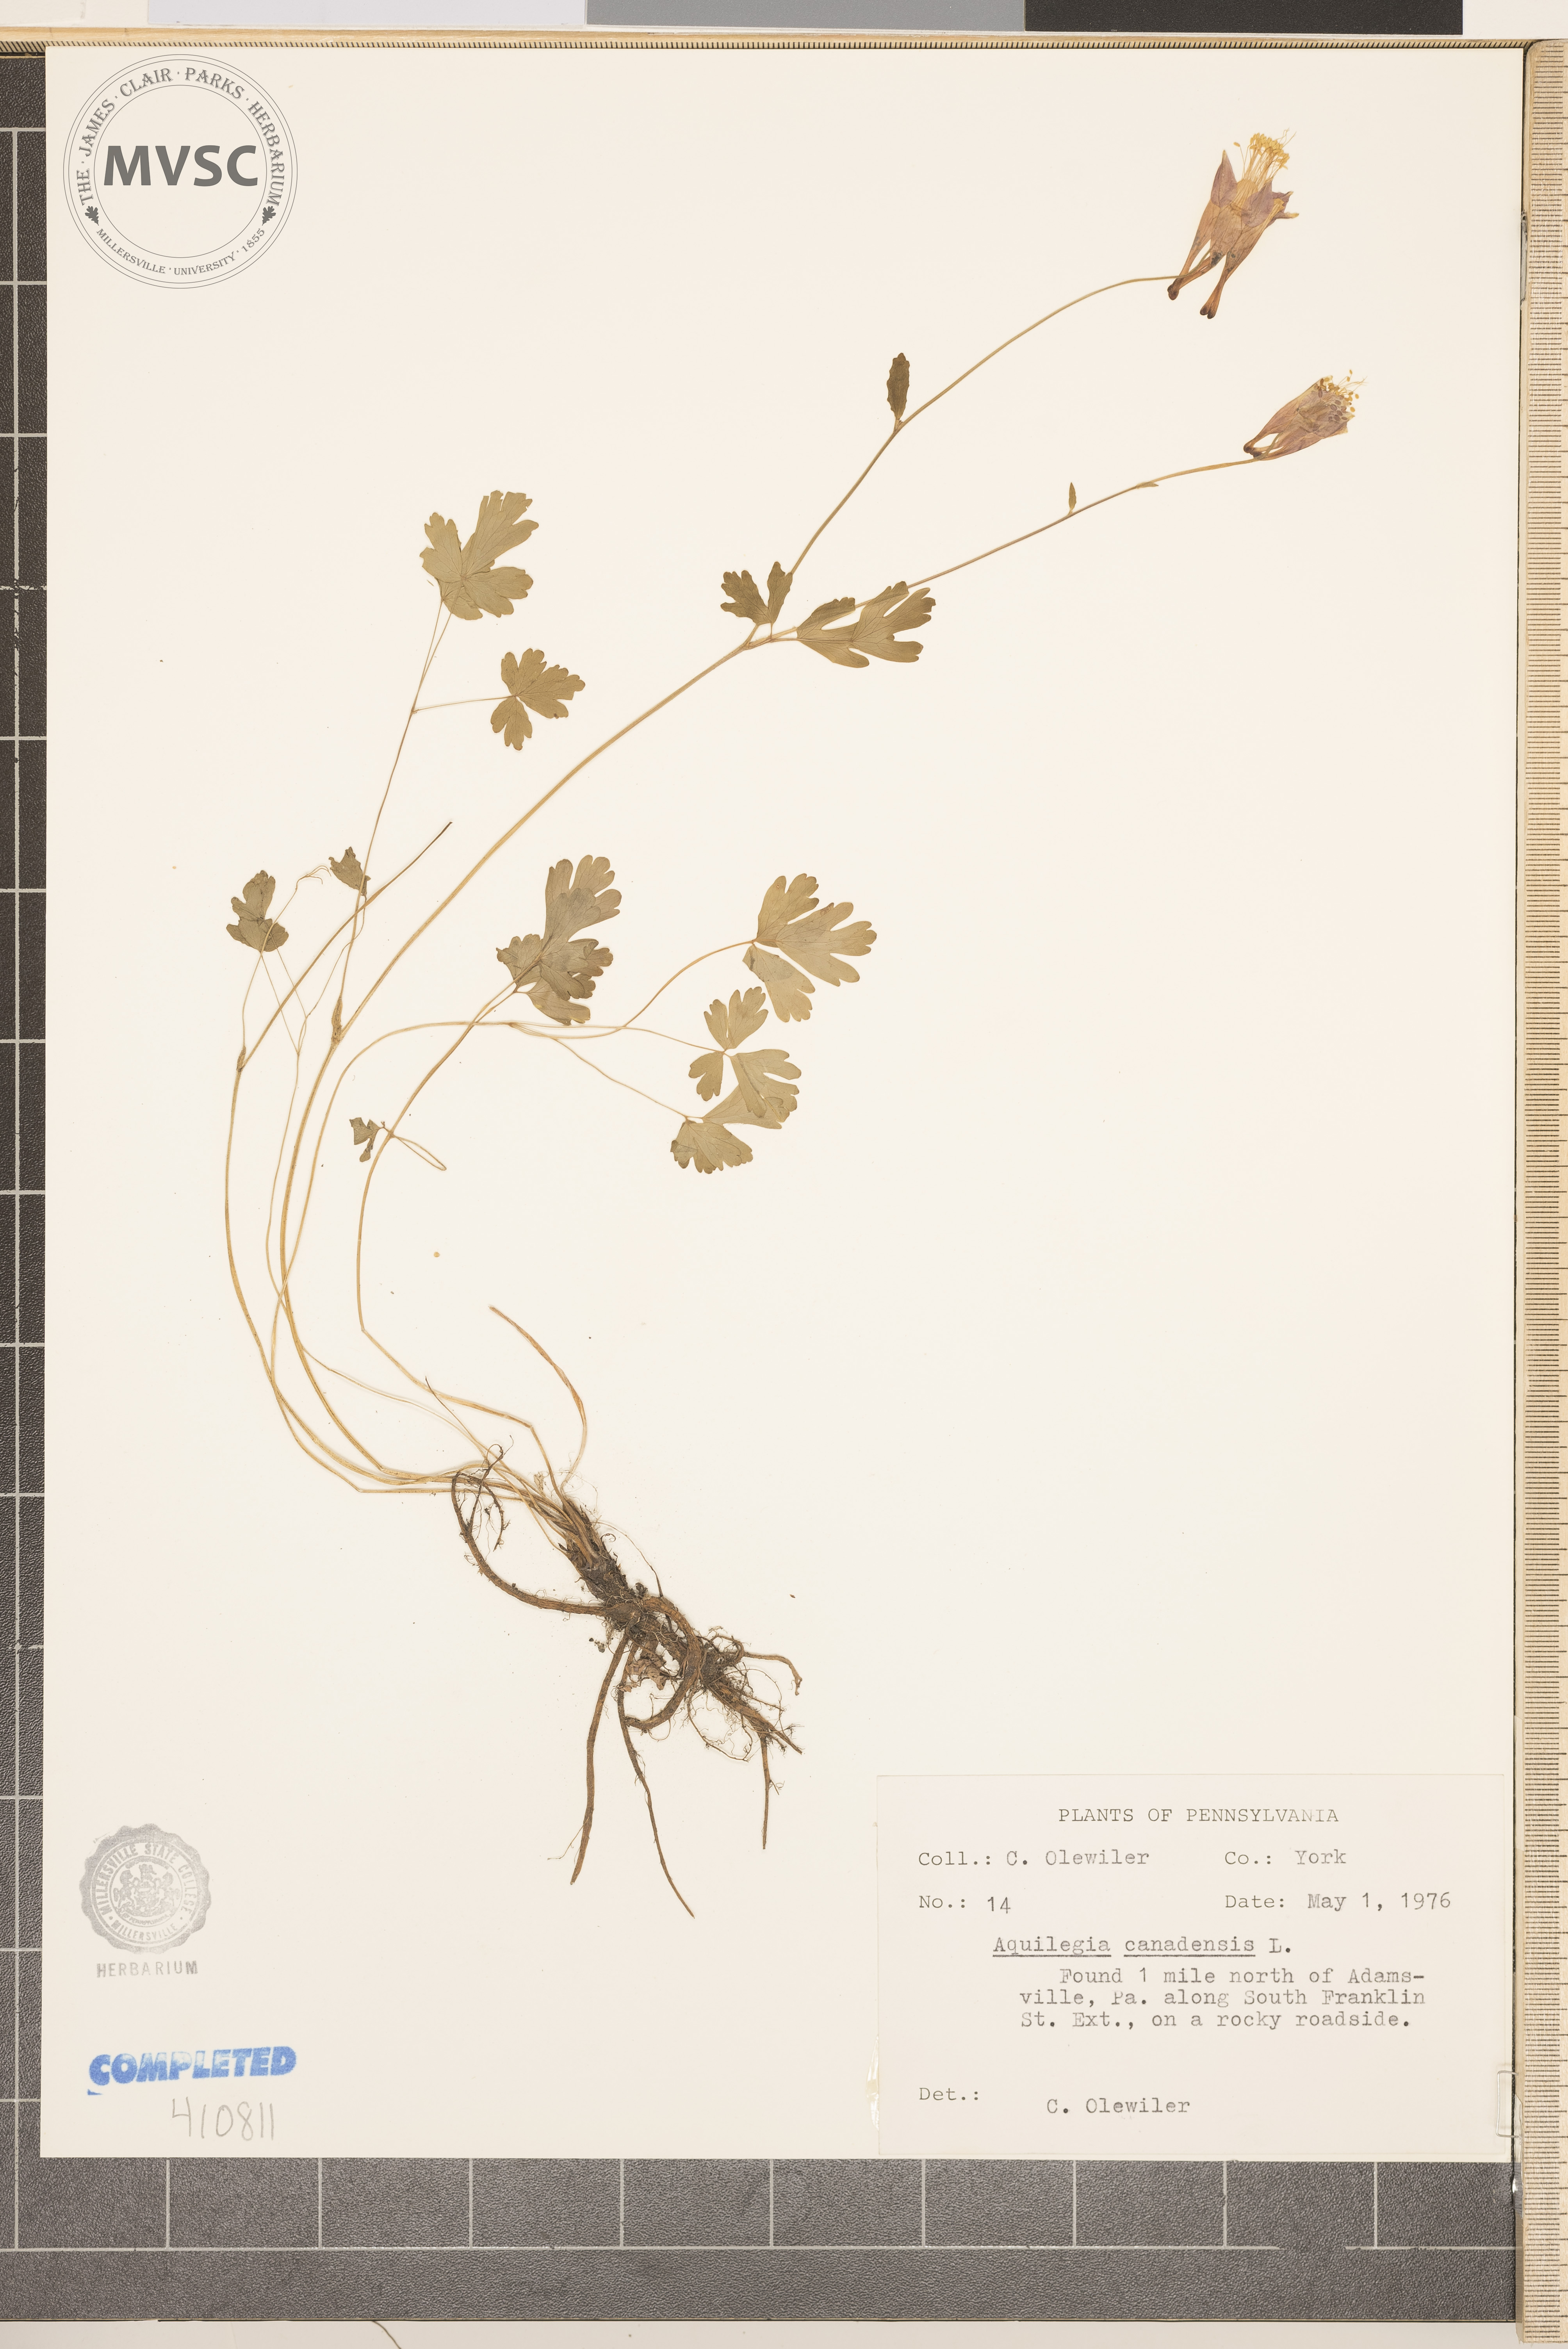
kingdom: Plantae
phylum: Tracheophyta
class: Magnoliopsida
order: Ranunculales
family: Ranunculaceae
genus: Aquilegia
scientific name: Aquilegia canadensis
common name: American columbine
